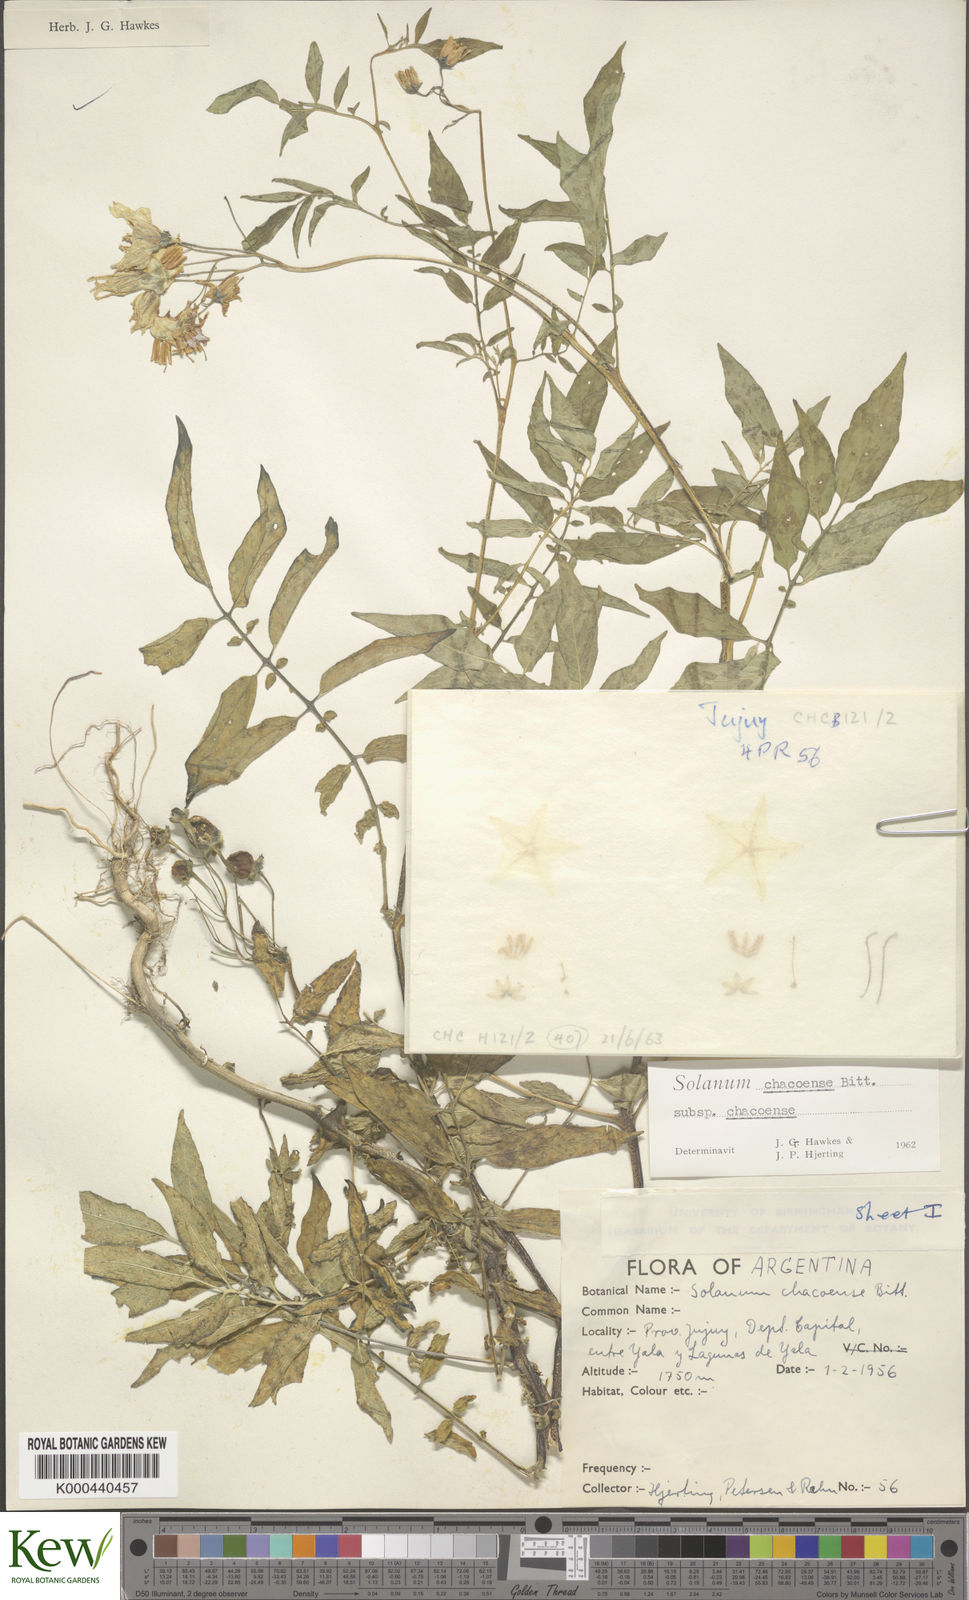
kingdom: Plantae
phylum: Tracheophyta
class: Magnoliopsida
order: Solanales
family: Solanaceae
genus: Solanum
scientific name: Solanum chacoense
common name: Chaco potato
